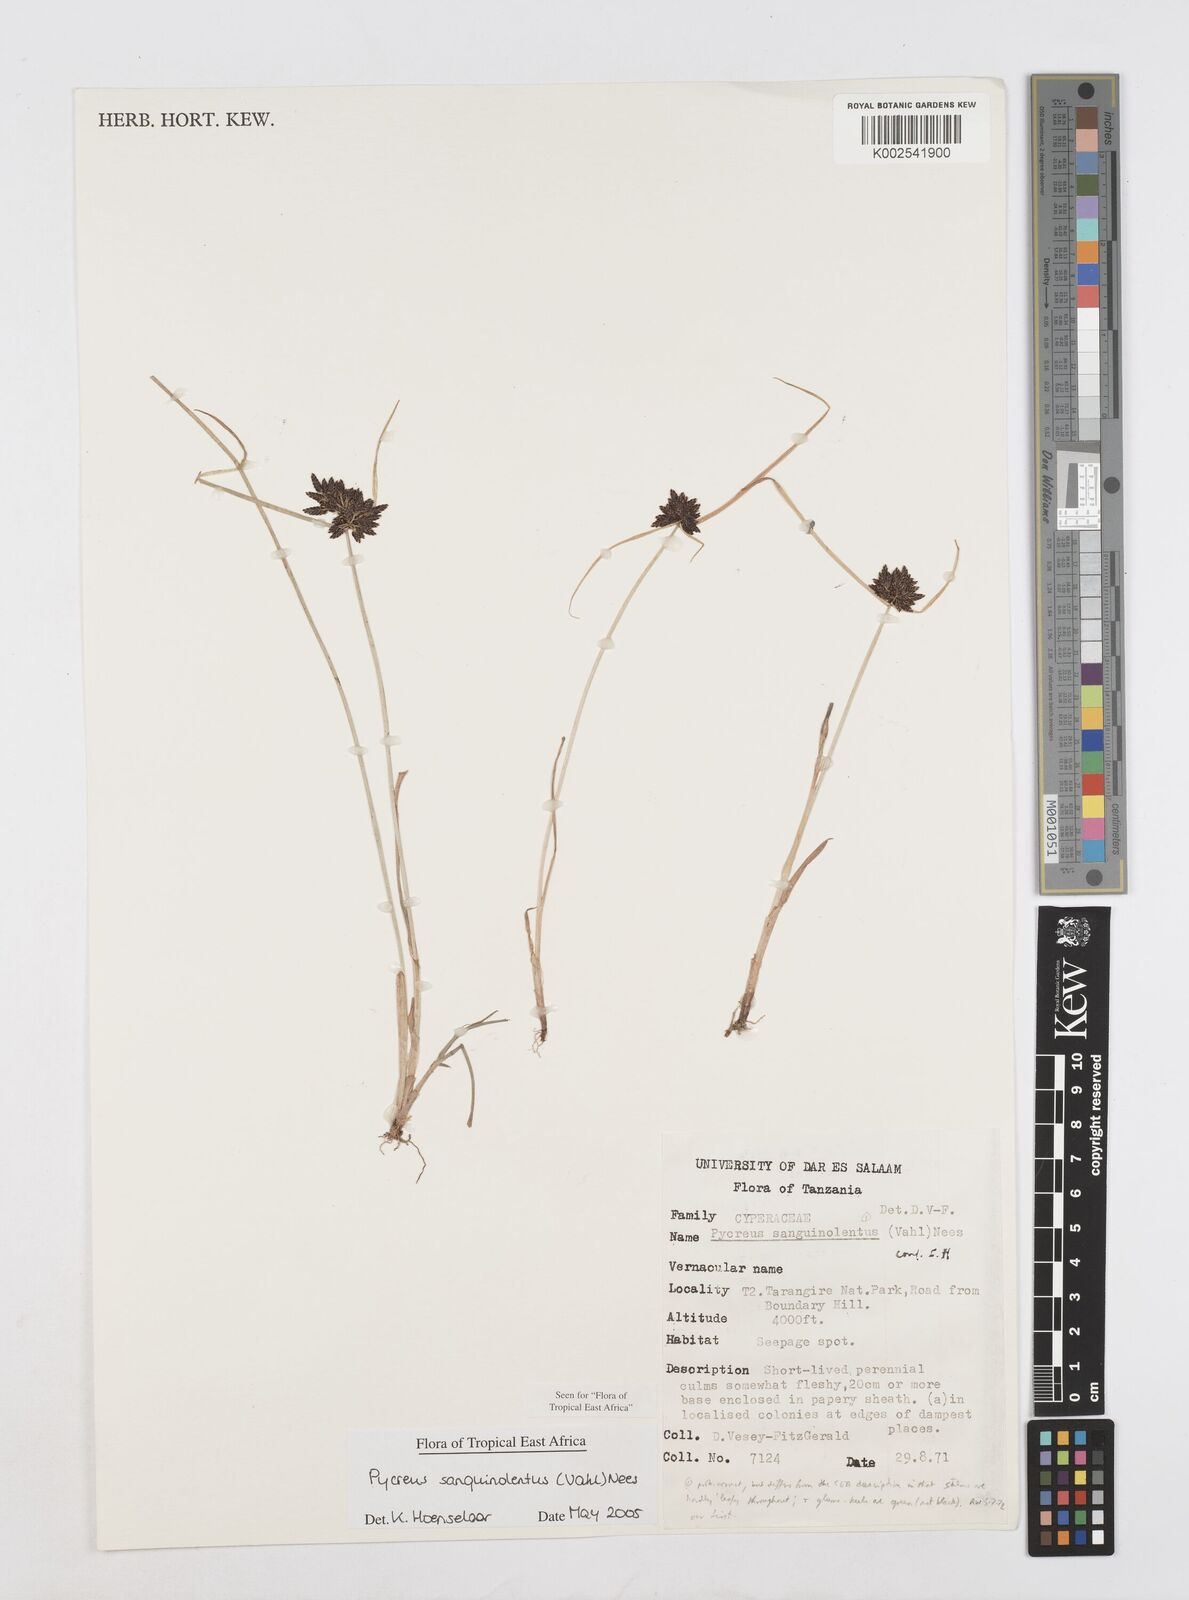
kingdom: Plantae
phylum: Tracheophyta
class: Liliopsida
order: Poales
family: Cyperaceae
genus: Cyperus
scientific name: Cyperus sanguinolentus
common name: Purpleglume flatsedge
